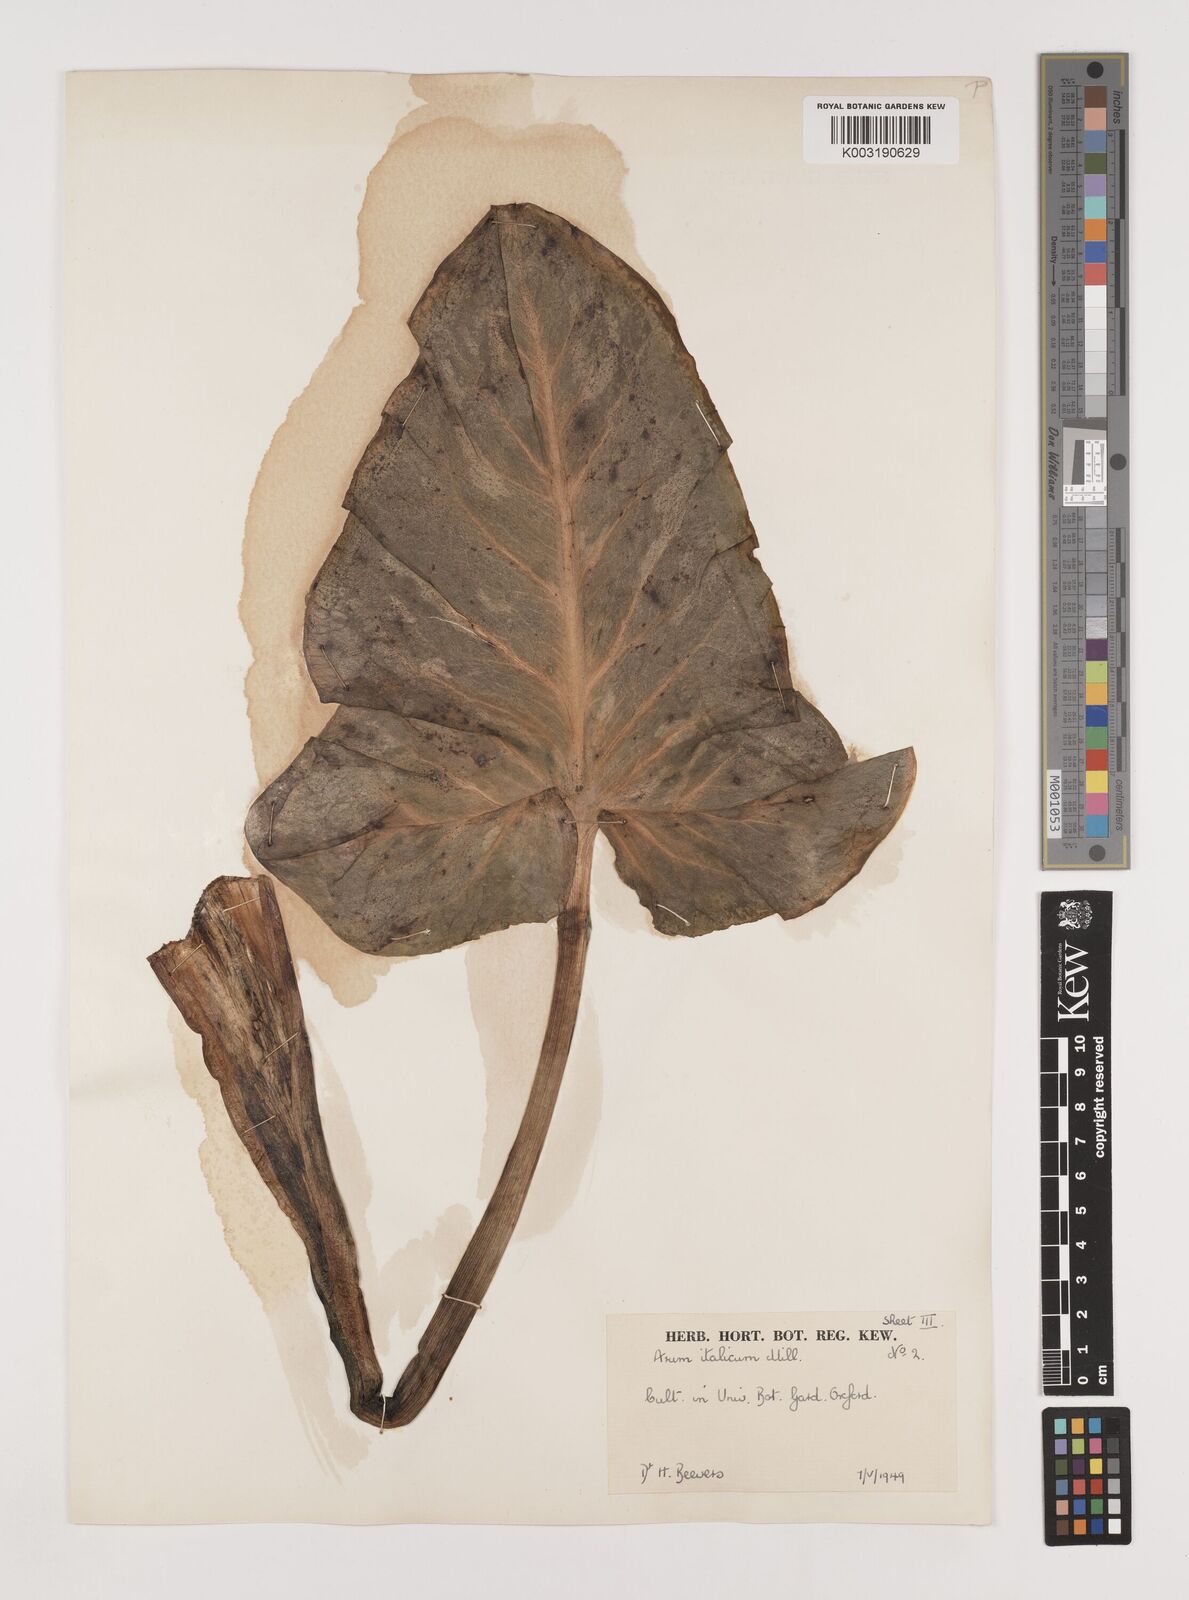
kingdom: Plantae
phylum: Tracheophyta
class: Liliopsida
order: Alismatales
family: Araceae
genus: Arum
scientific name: Arum italicum
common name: Italian lords-and-ladies
